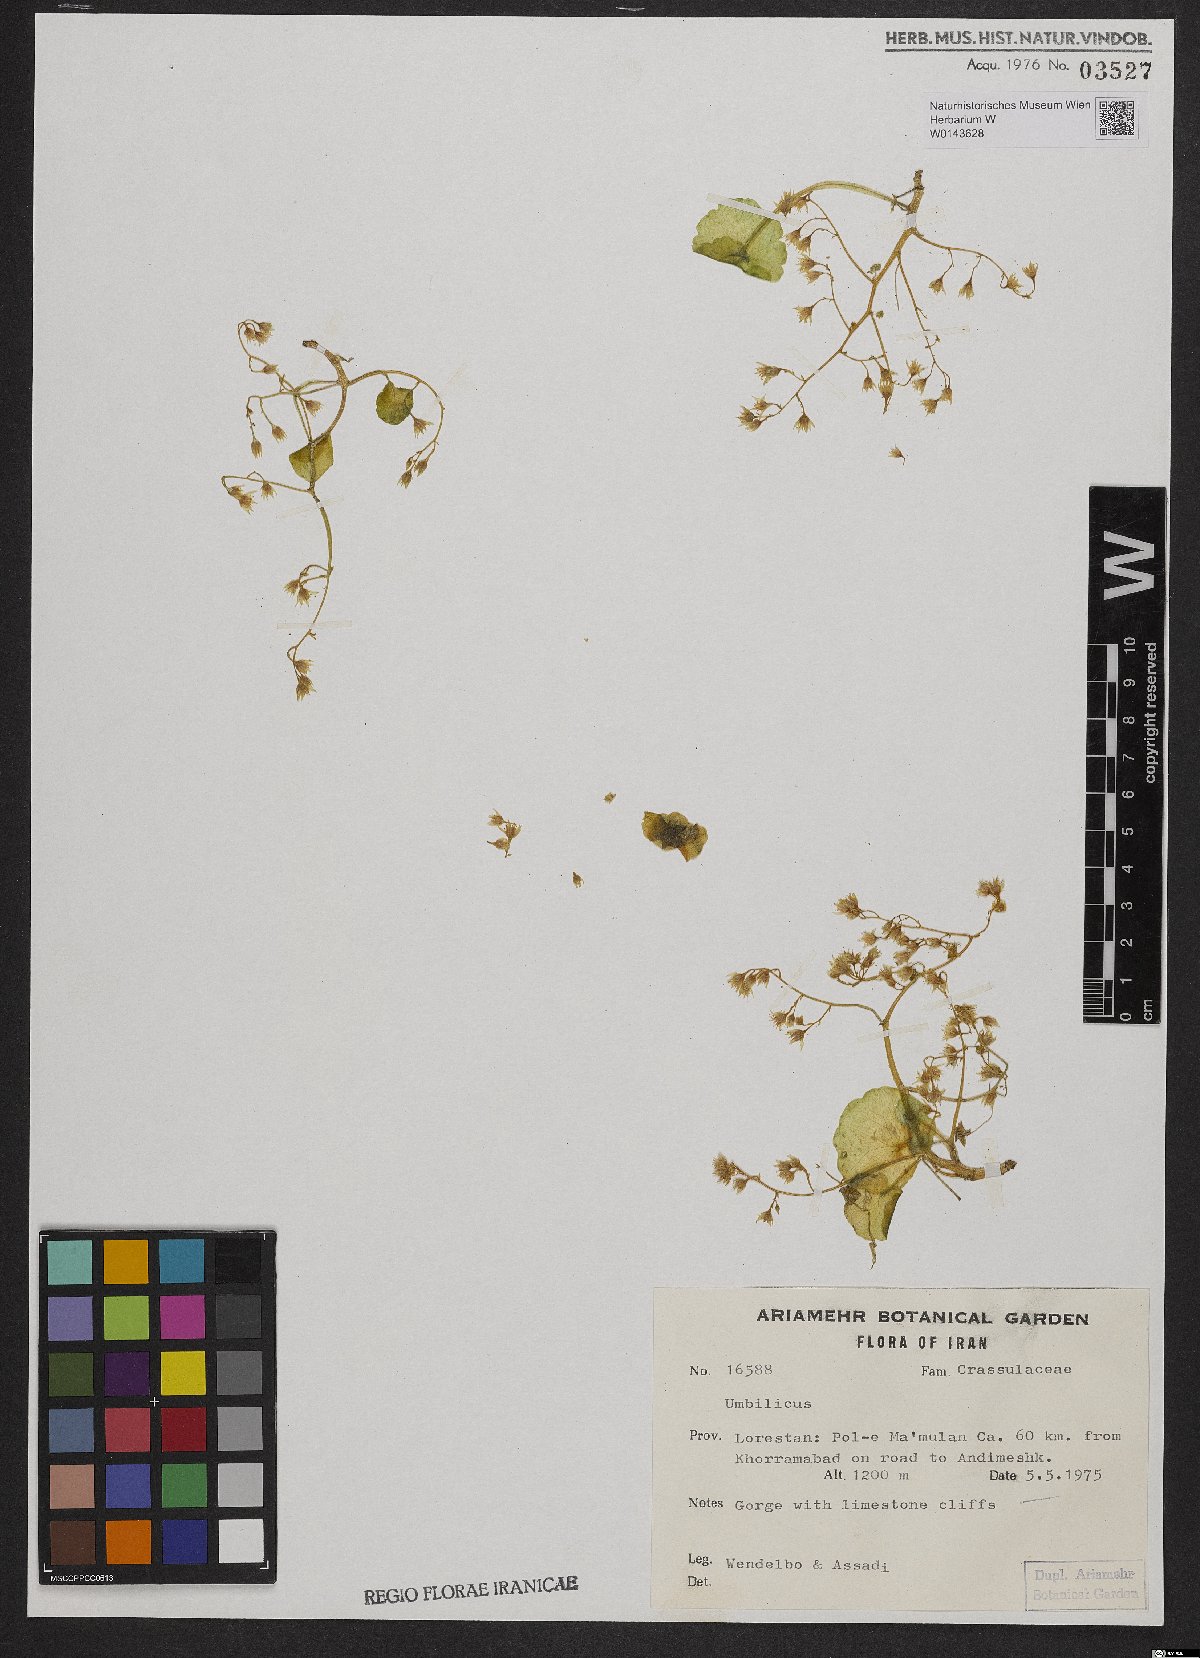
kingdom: Plantae
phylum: Tracheophyta
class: Magnoliopsida
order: Saxifragales
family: Crassulaceae
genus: Umbilicus
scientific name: Umbilicus
